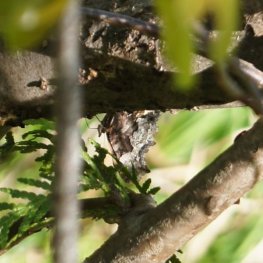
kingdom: Animalia
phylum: Arthropoda
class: Insecta
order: Lepidoptera
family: Nymphalidae
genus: Polygonia
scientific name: Polygonia gracilis
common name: Hoary Comma
